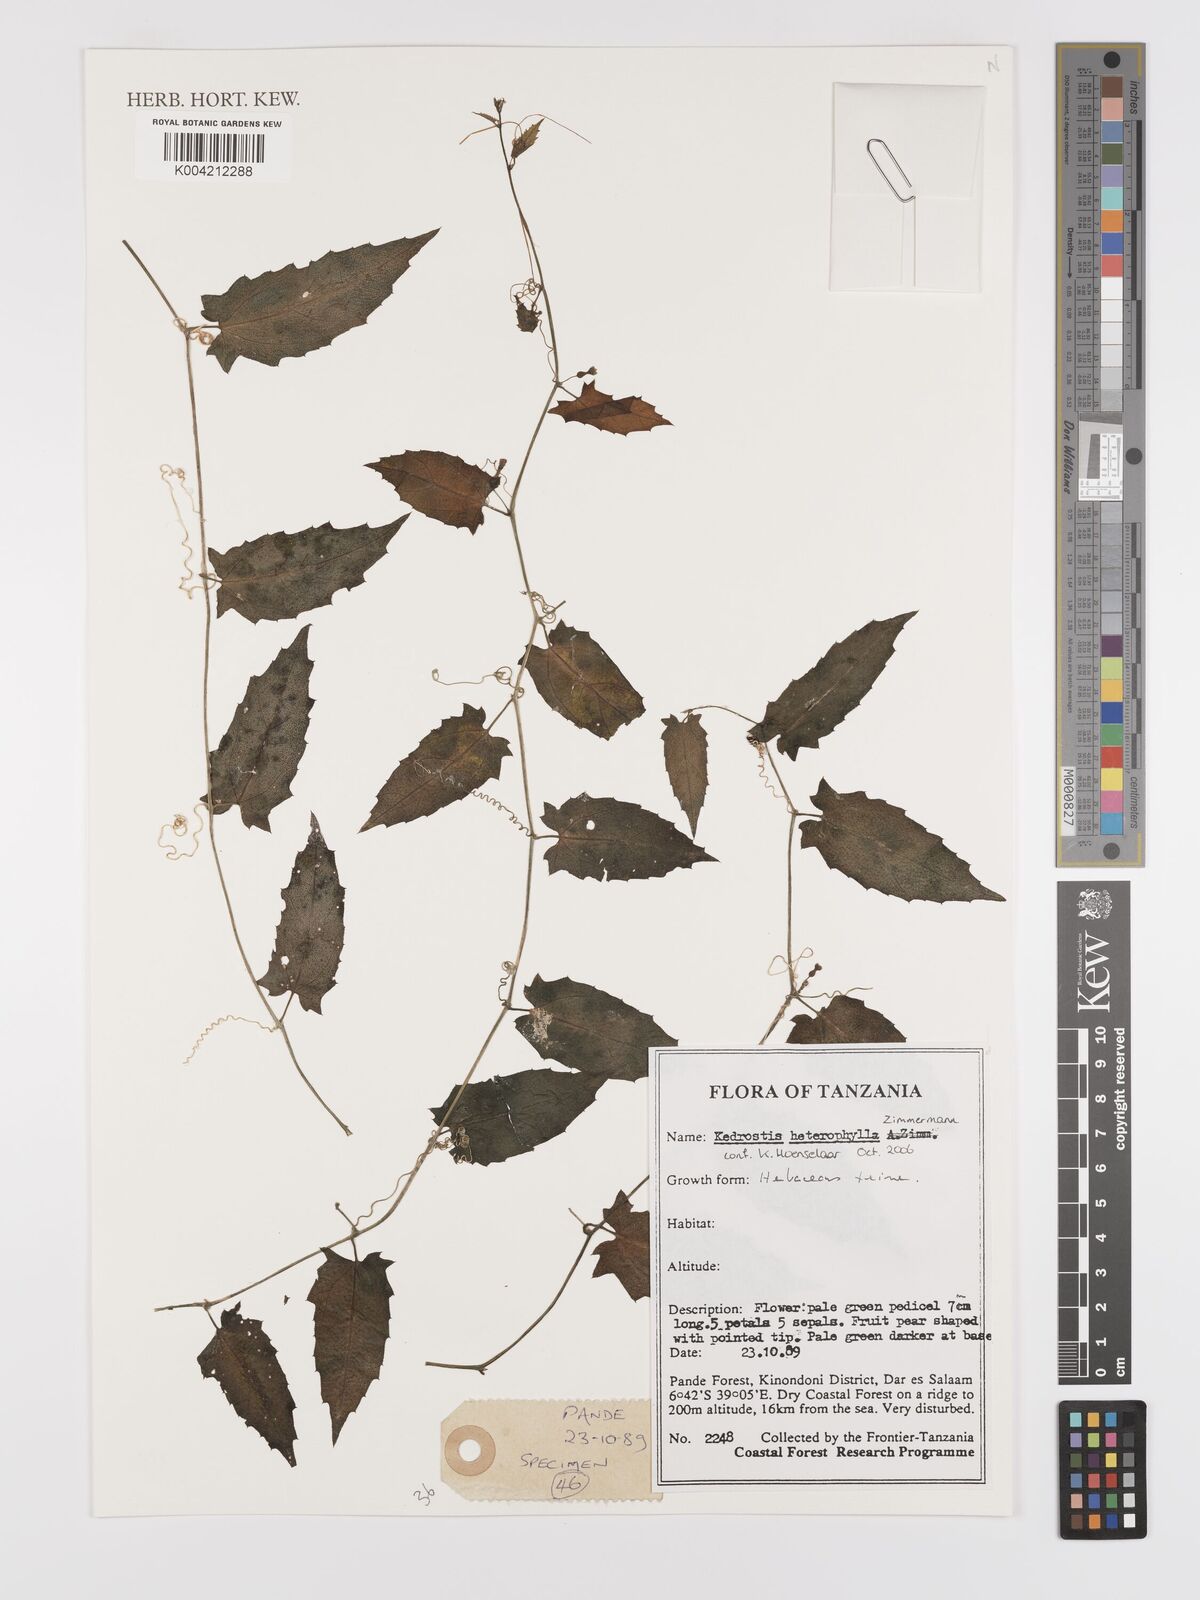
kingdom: Plantae
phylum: Tracheophyta
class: Magnoliopsida
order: Cucurbitales
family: Cucurbitaceae
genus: Kedrostis
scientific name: Kedrostis heterophylla
